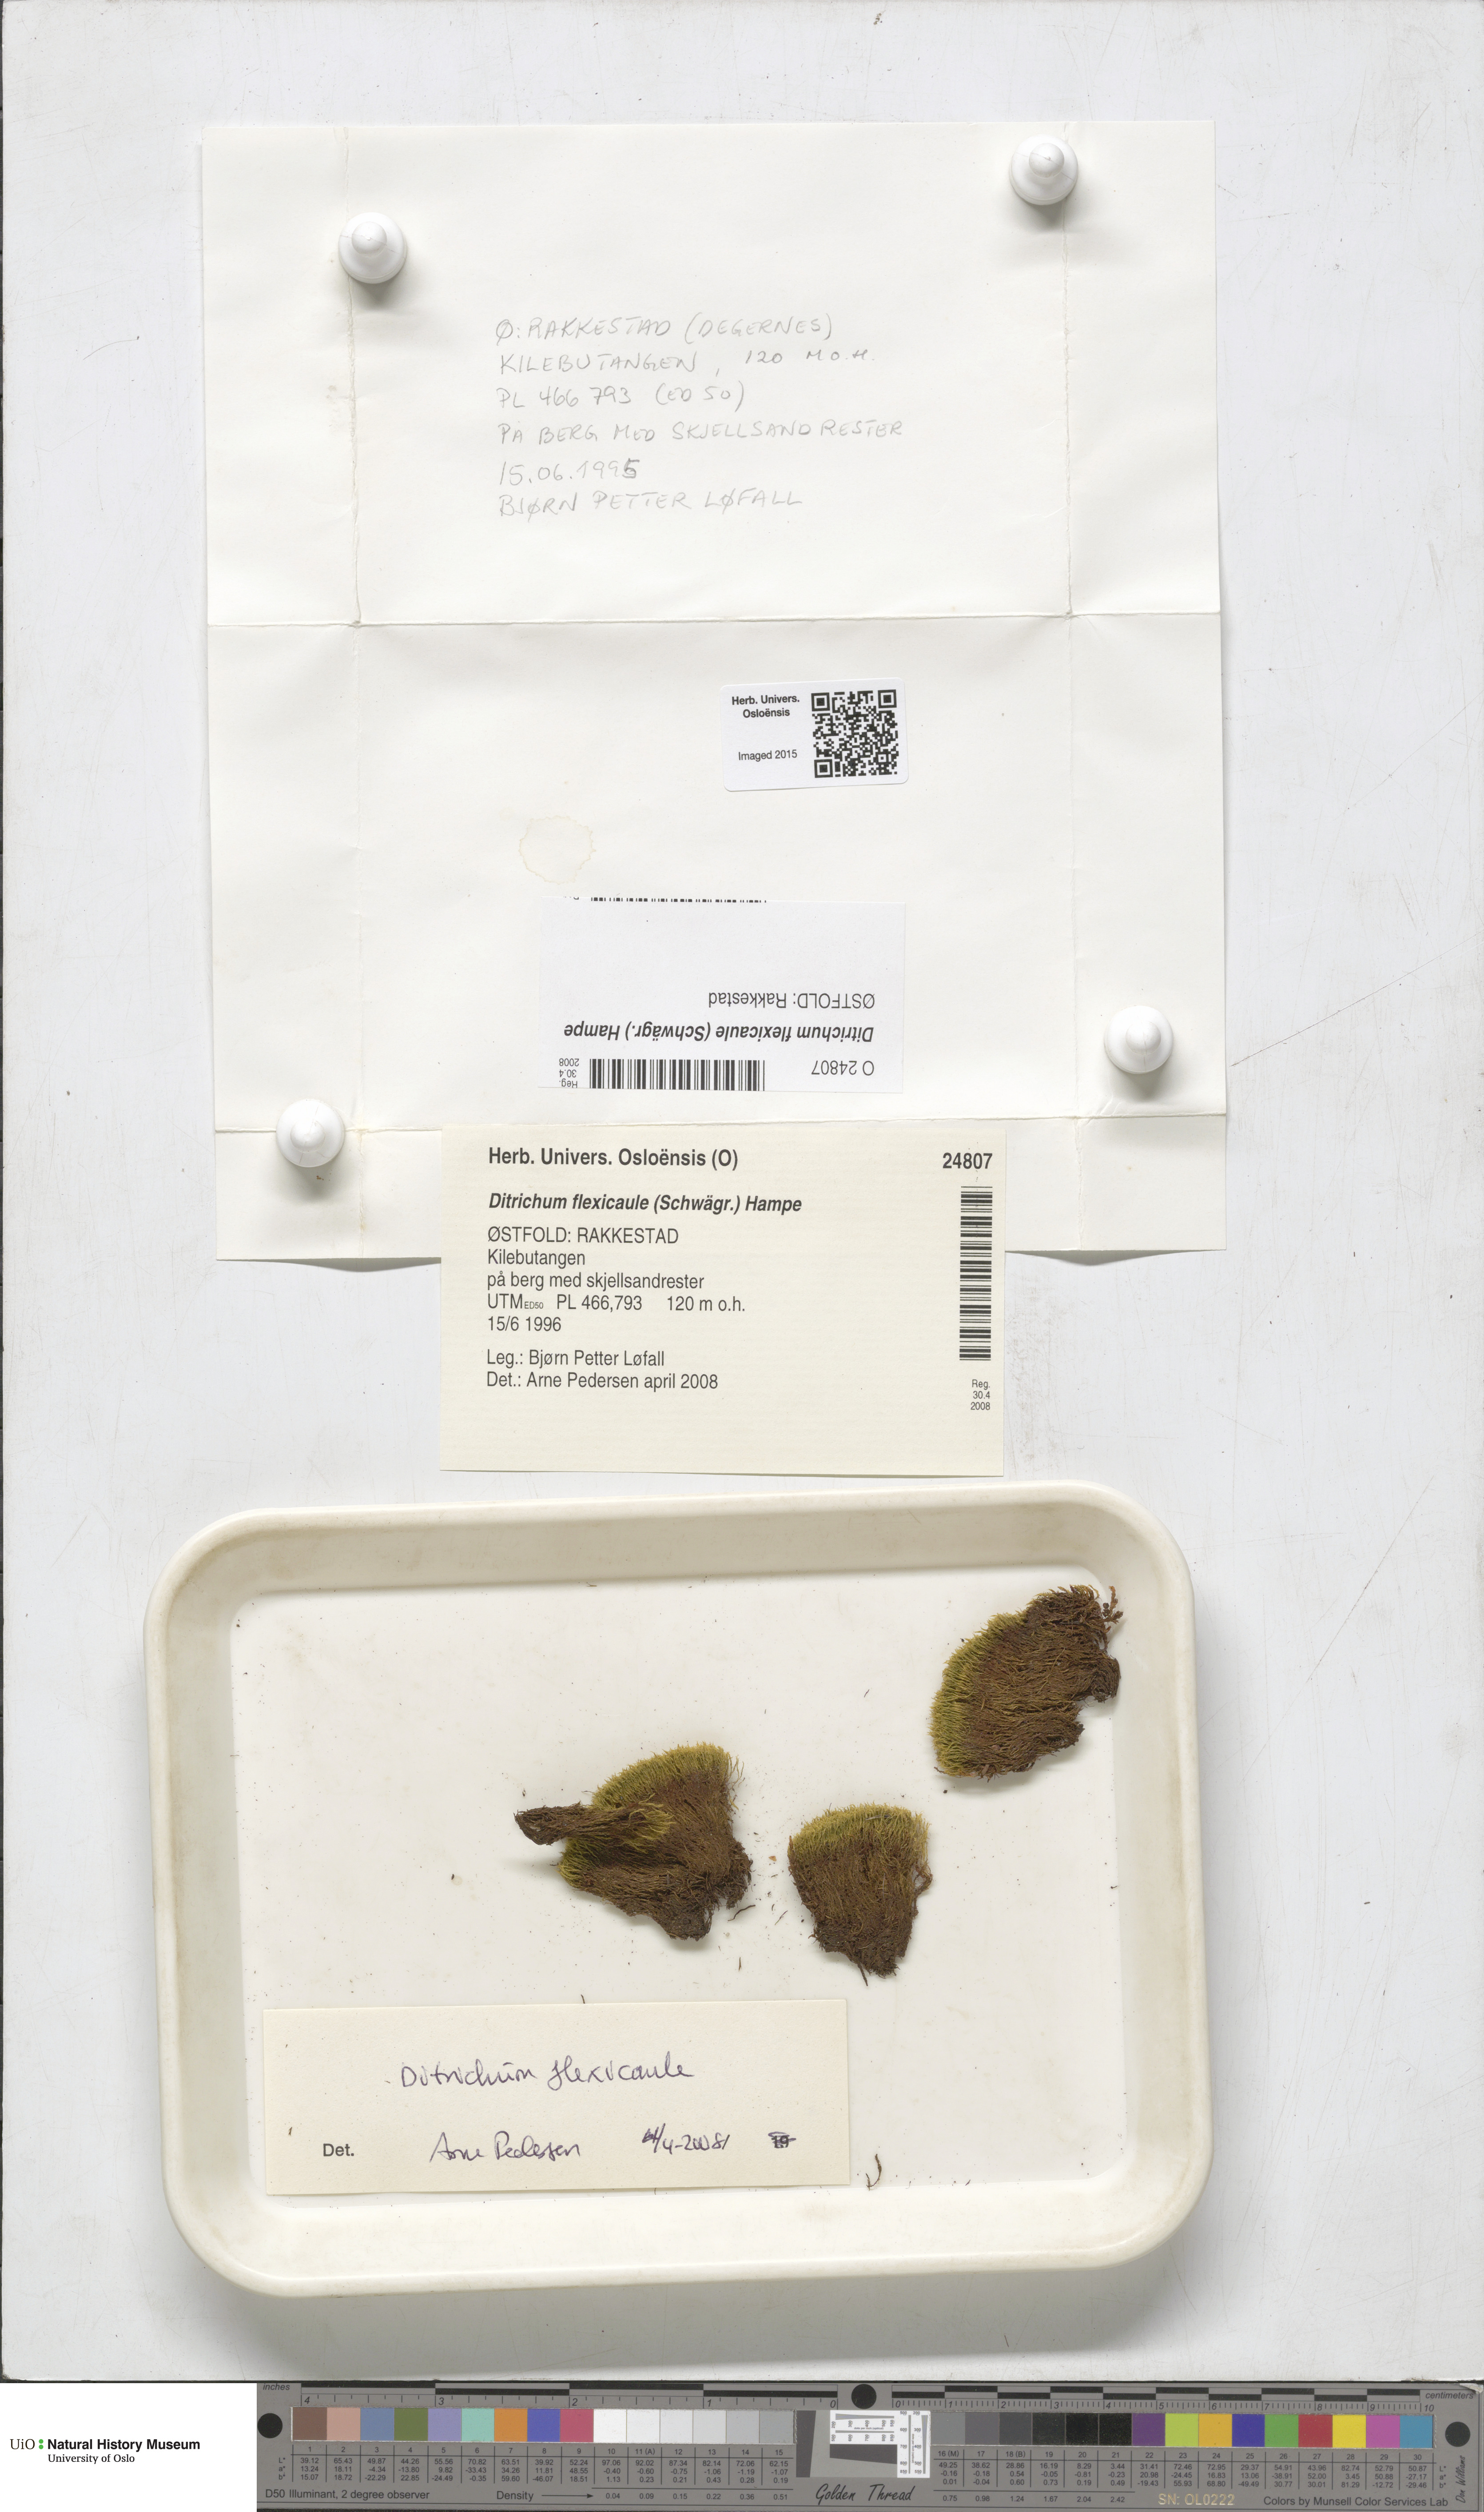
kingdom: Plantae
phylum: Bryophyta
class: Bryopsida
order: Scouleriales
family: Flexitrichaceae
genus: Flexitrichum
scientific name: Flexitrichum flexicaule
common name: Bendy ditrichum
